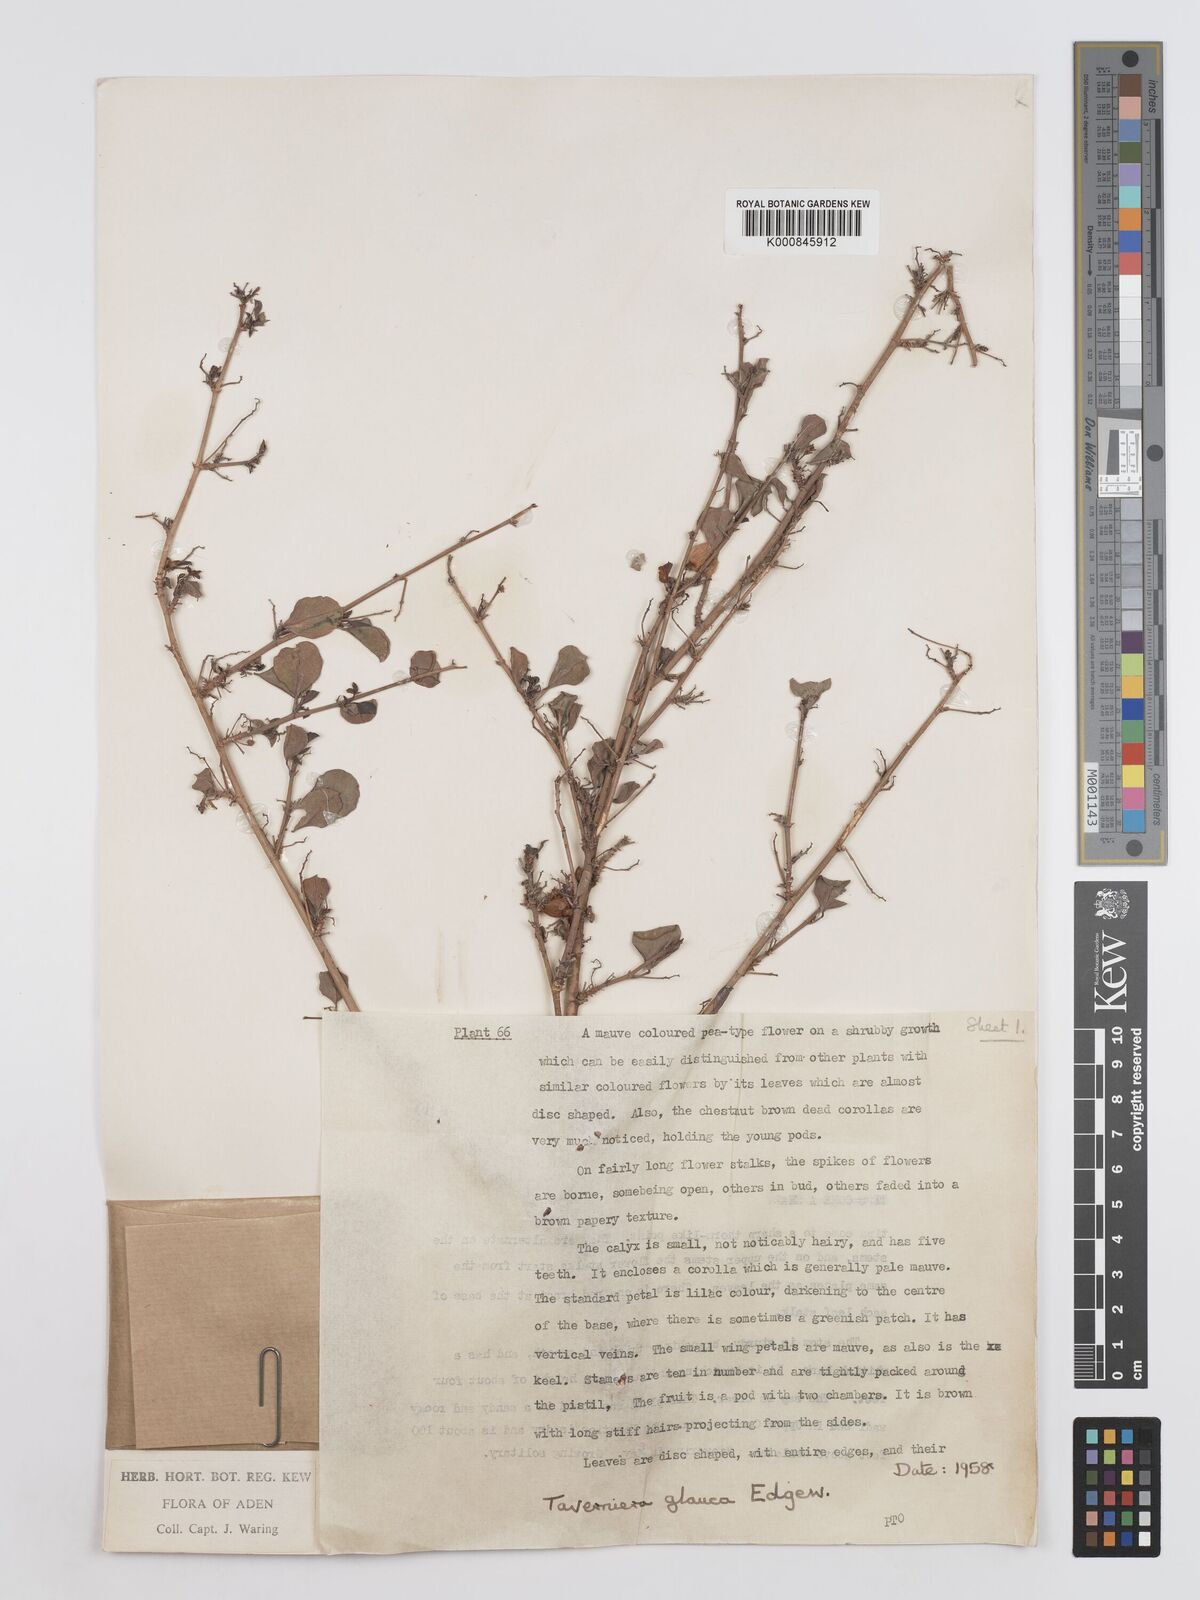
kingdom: Plantae
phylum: Tracheophyta
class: Magnoliopsida
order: Fabales
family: Fabaceae
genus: Taverniera
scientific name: Taverniera glauca
